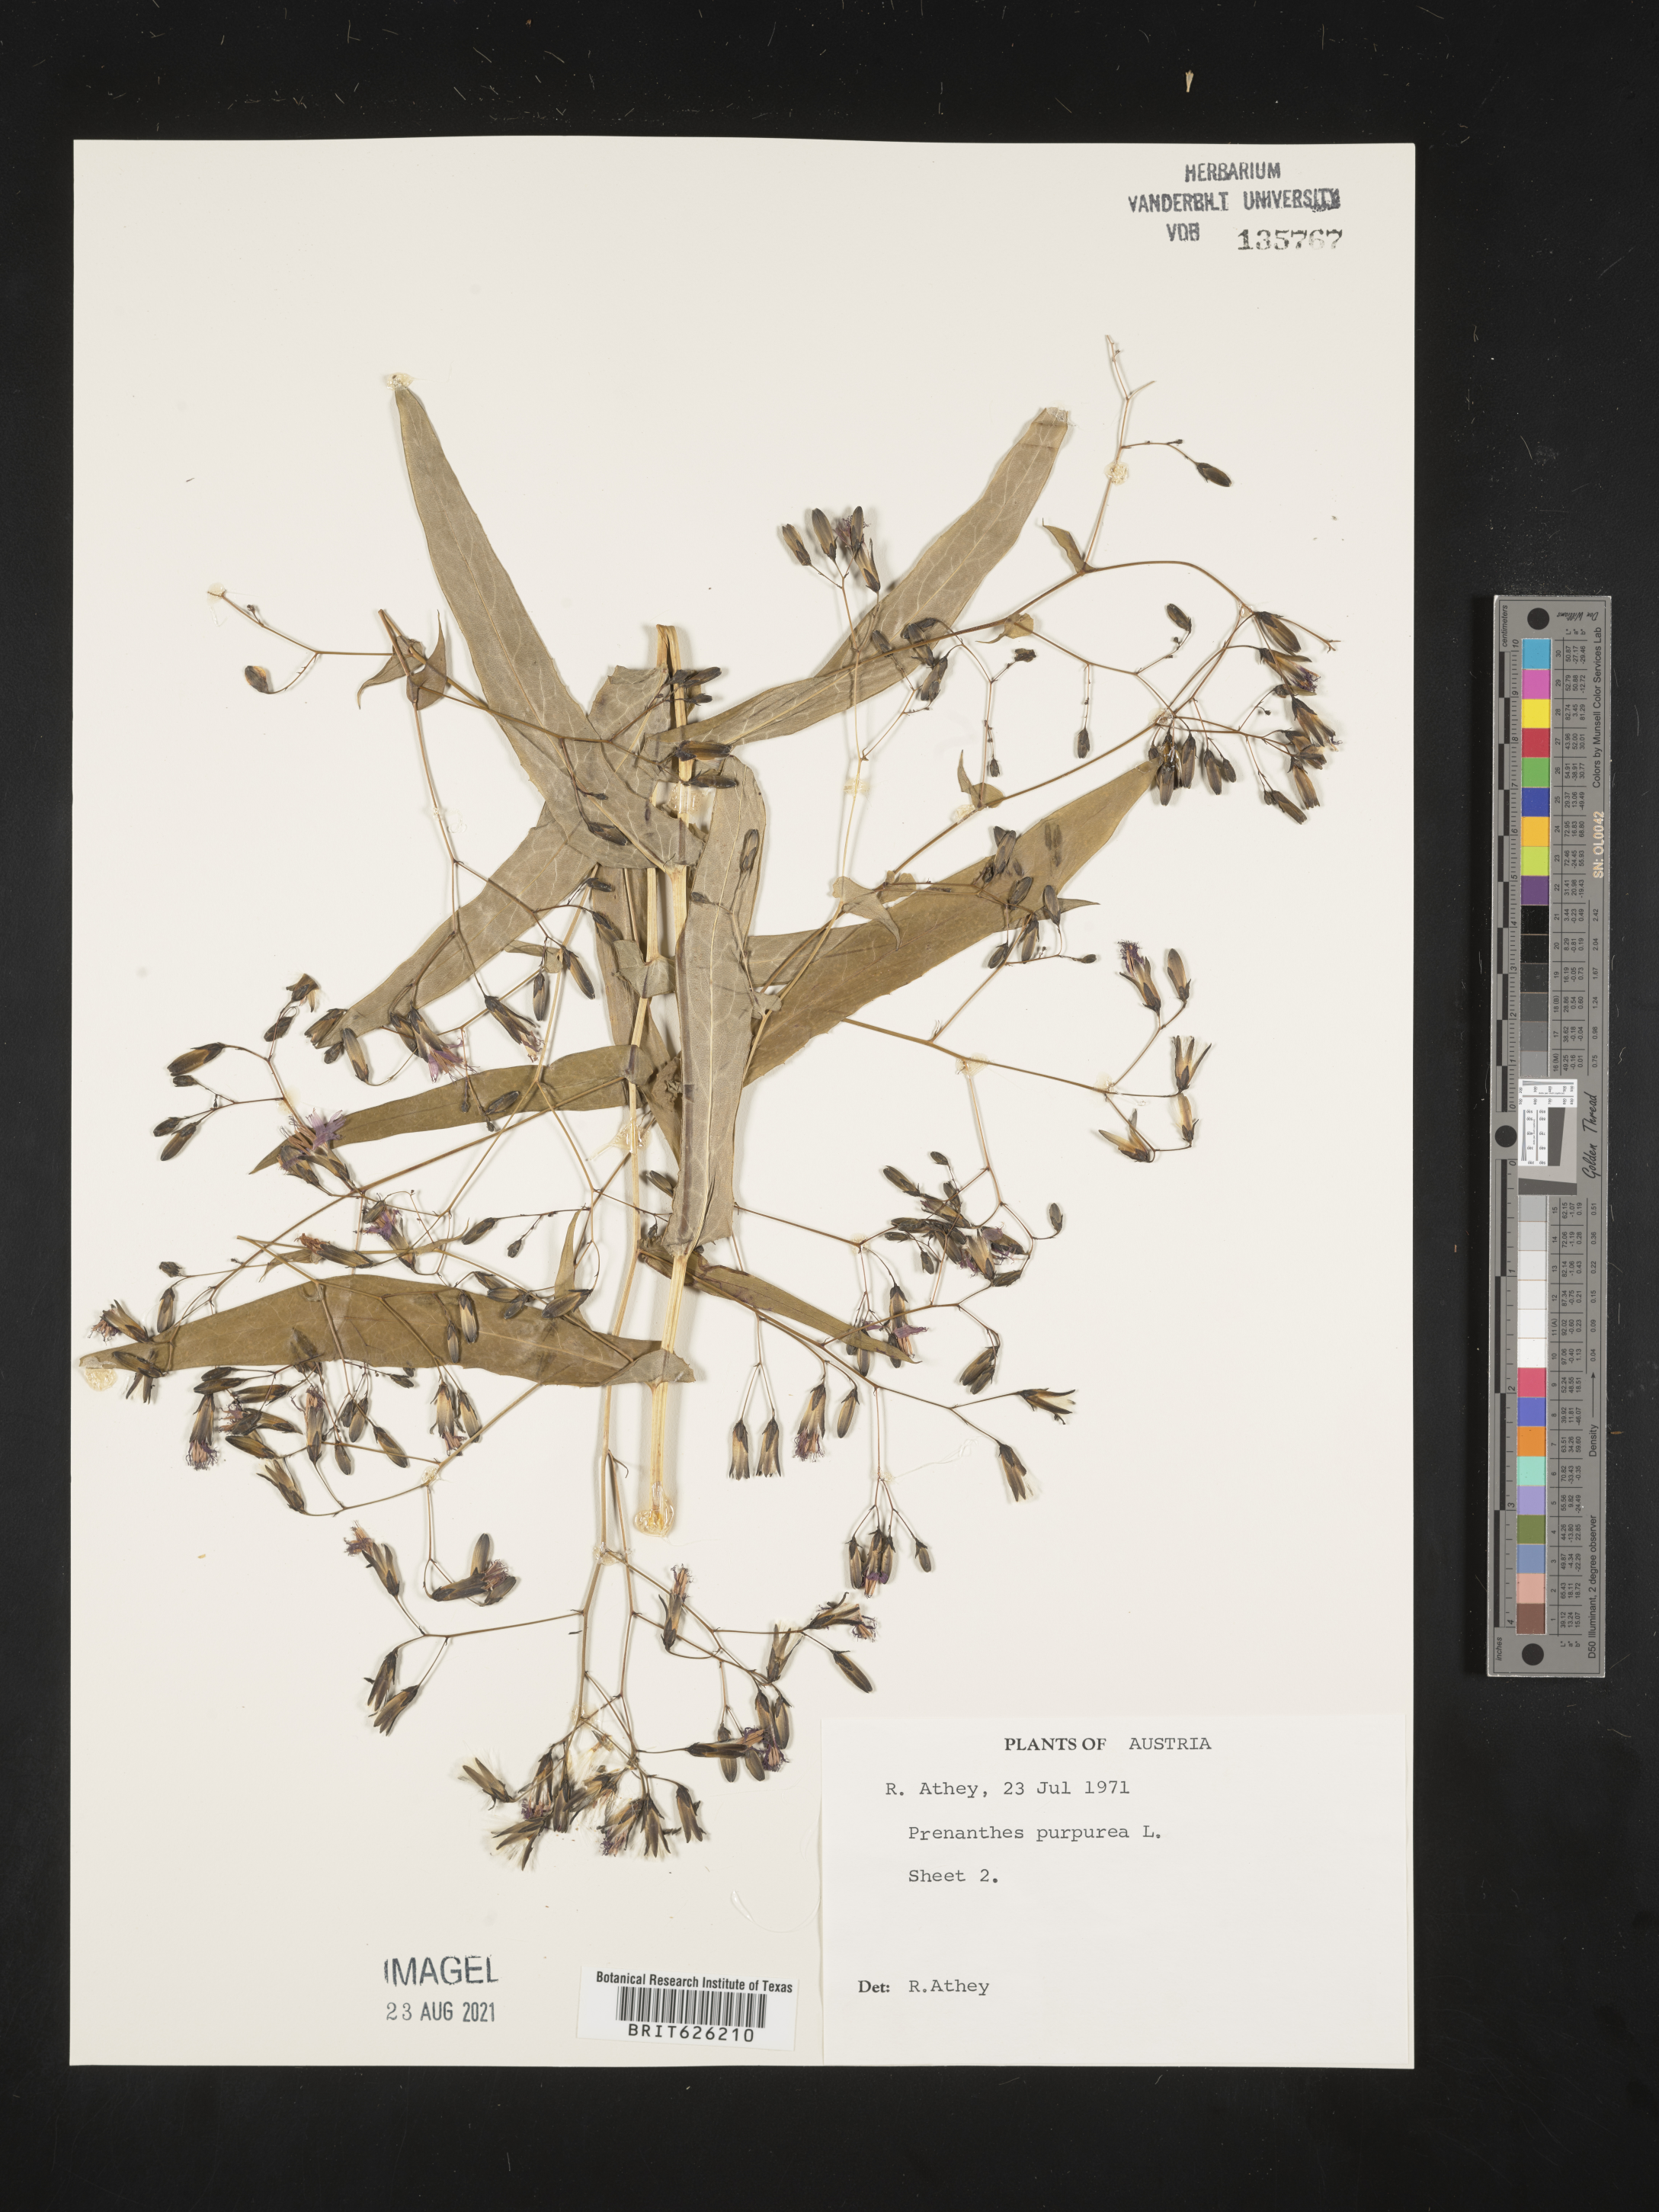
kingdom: Plantae
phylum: Tracheophyta
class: Magnoliopsida
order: Asterales
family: Asteraceae
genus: Prenanthes
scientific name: Prenanthes purpurea
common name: Purple lettuce
